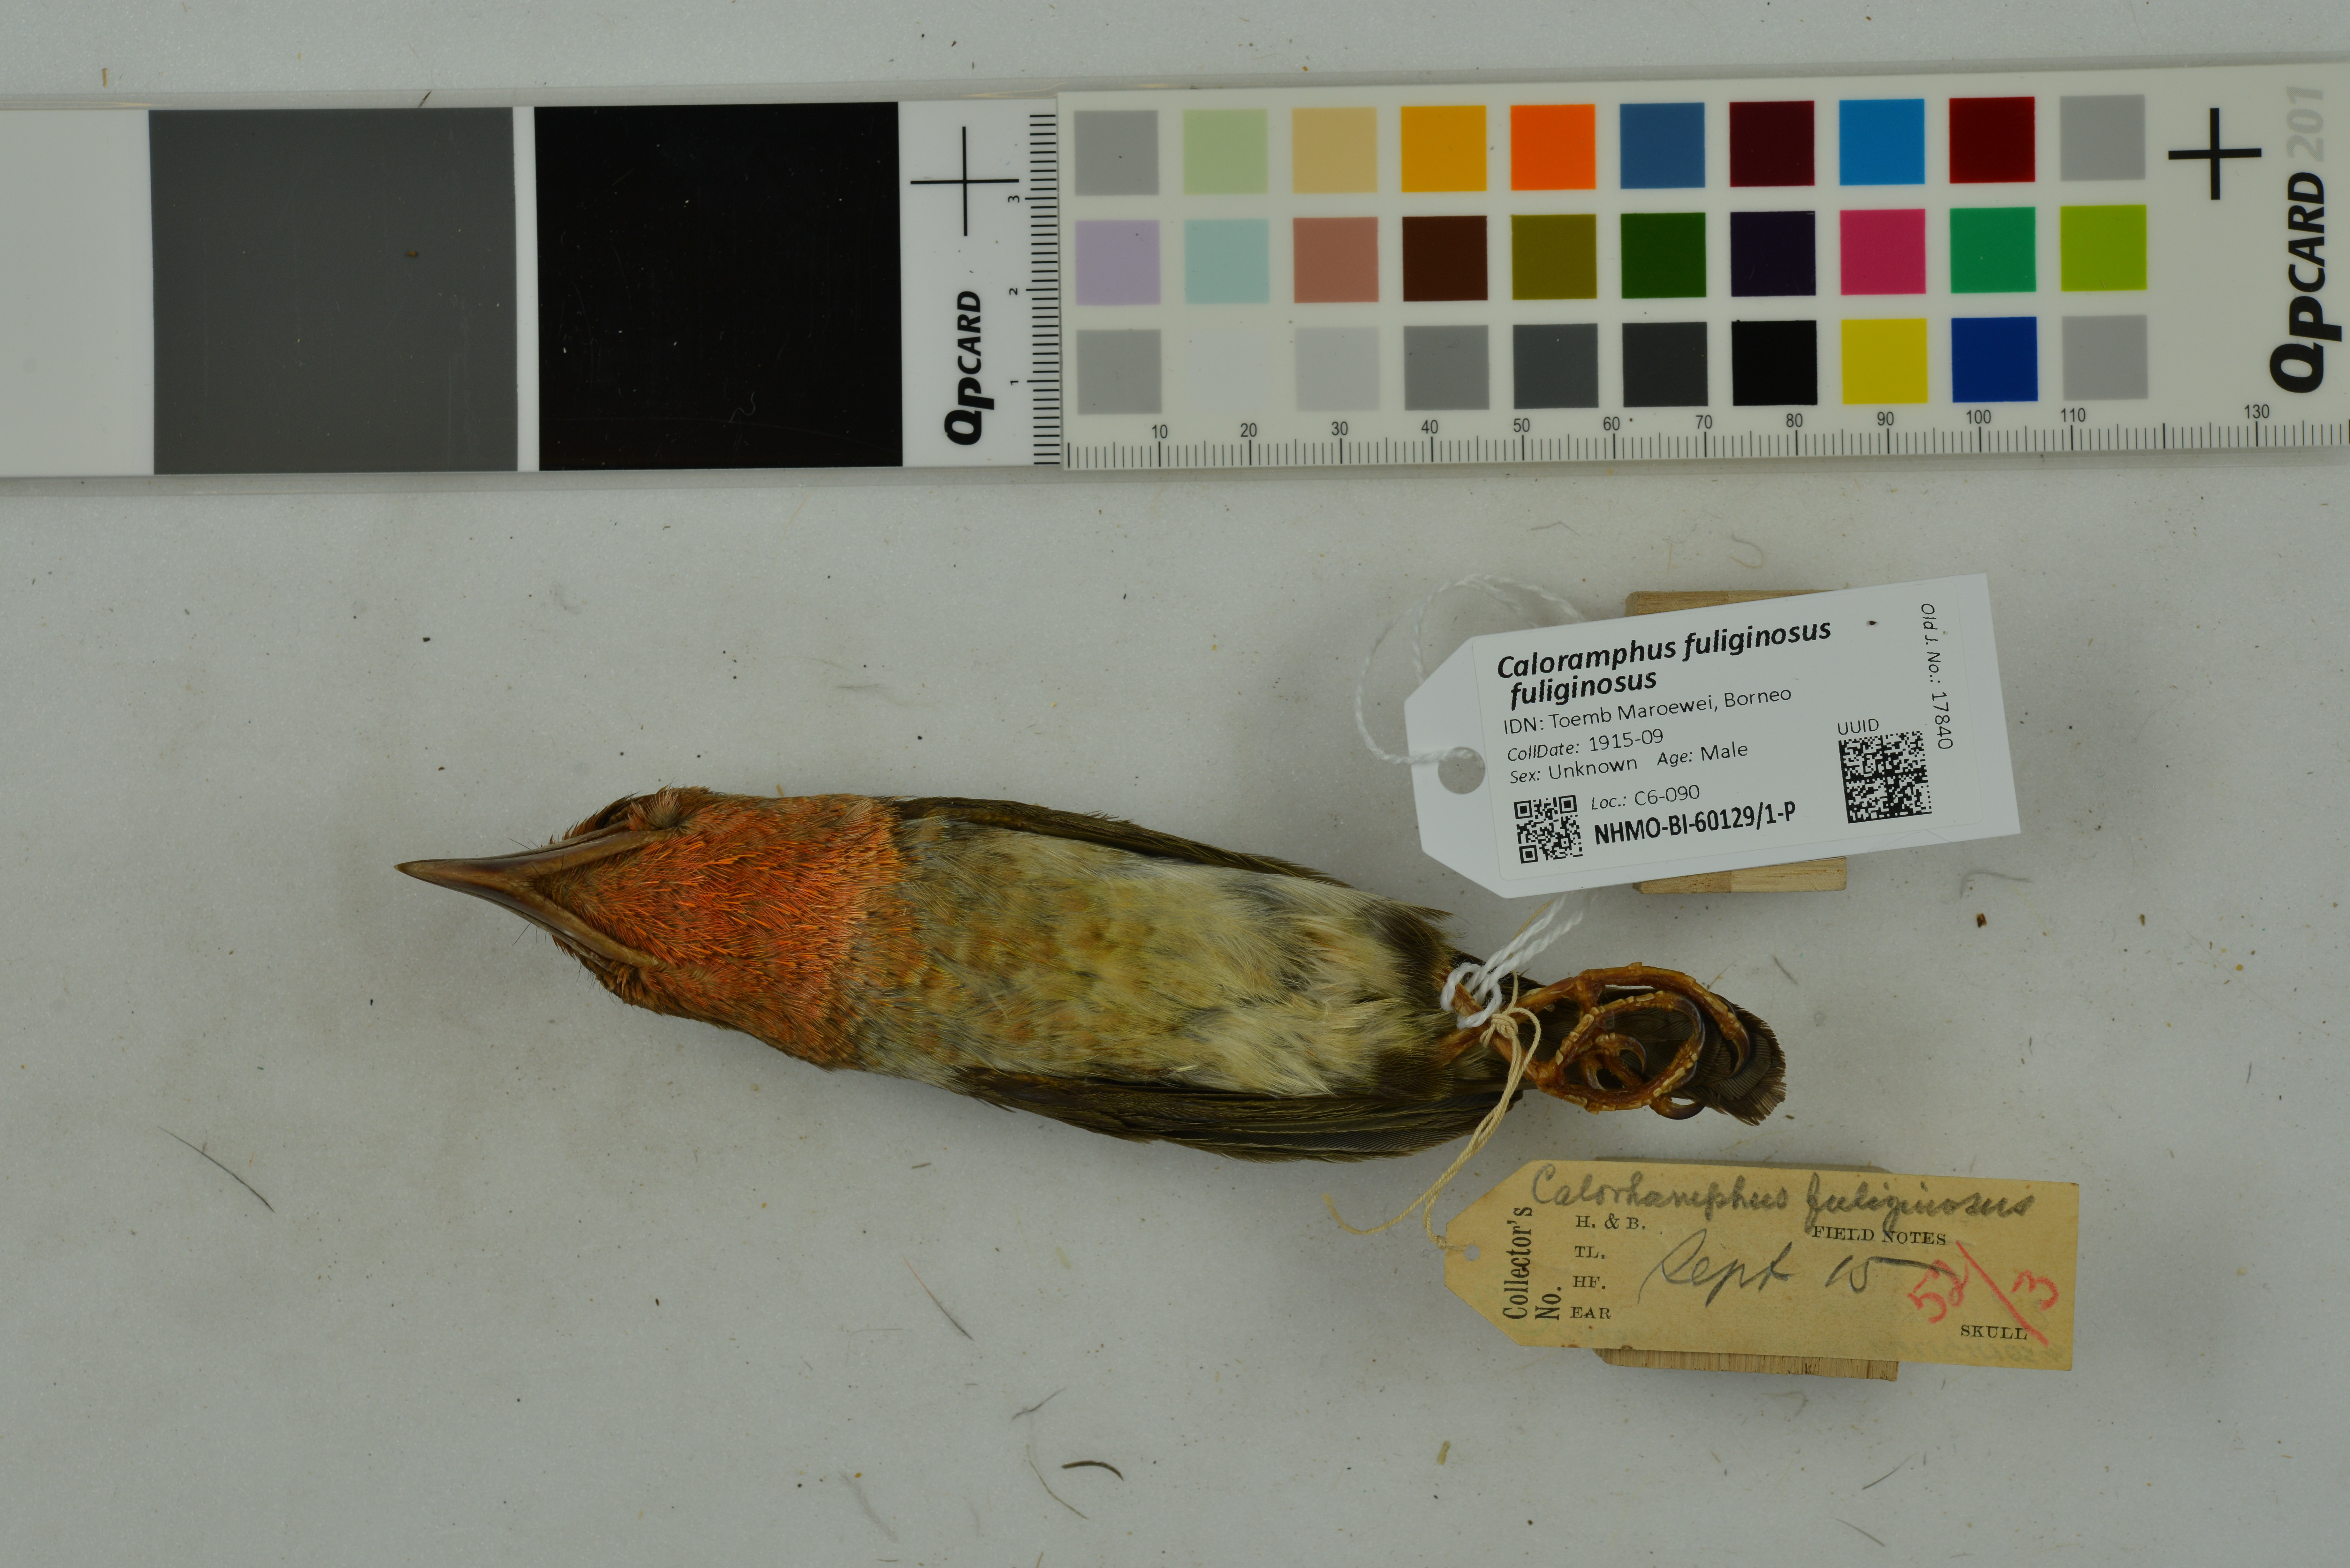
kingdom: Animalia
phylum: Chordata
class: Aves
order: Piciformes
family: Megalaimidae
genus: Caloramphus
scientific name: Caloramphus fuliginosus
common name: Brown barbet
